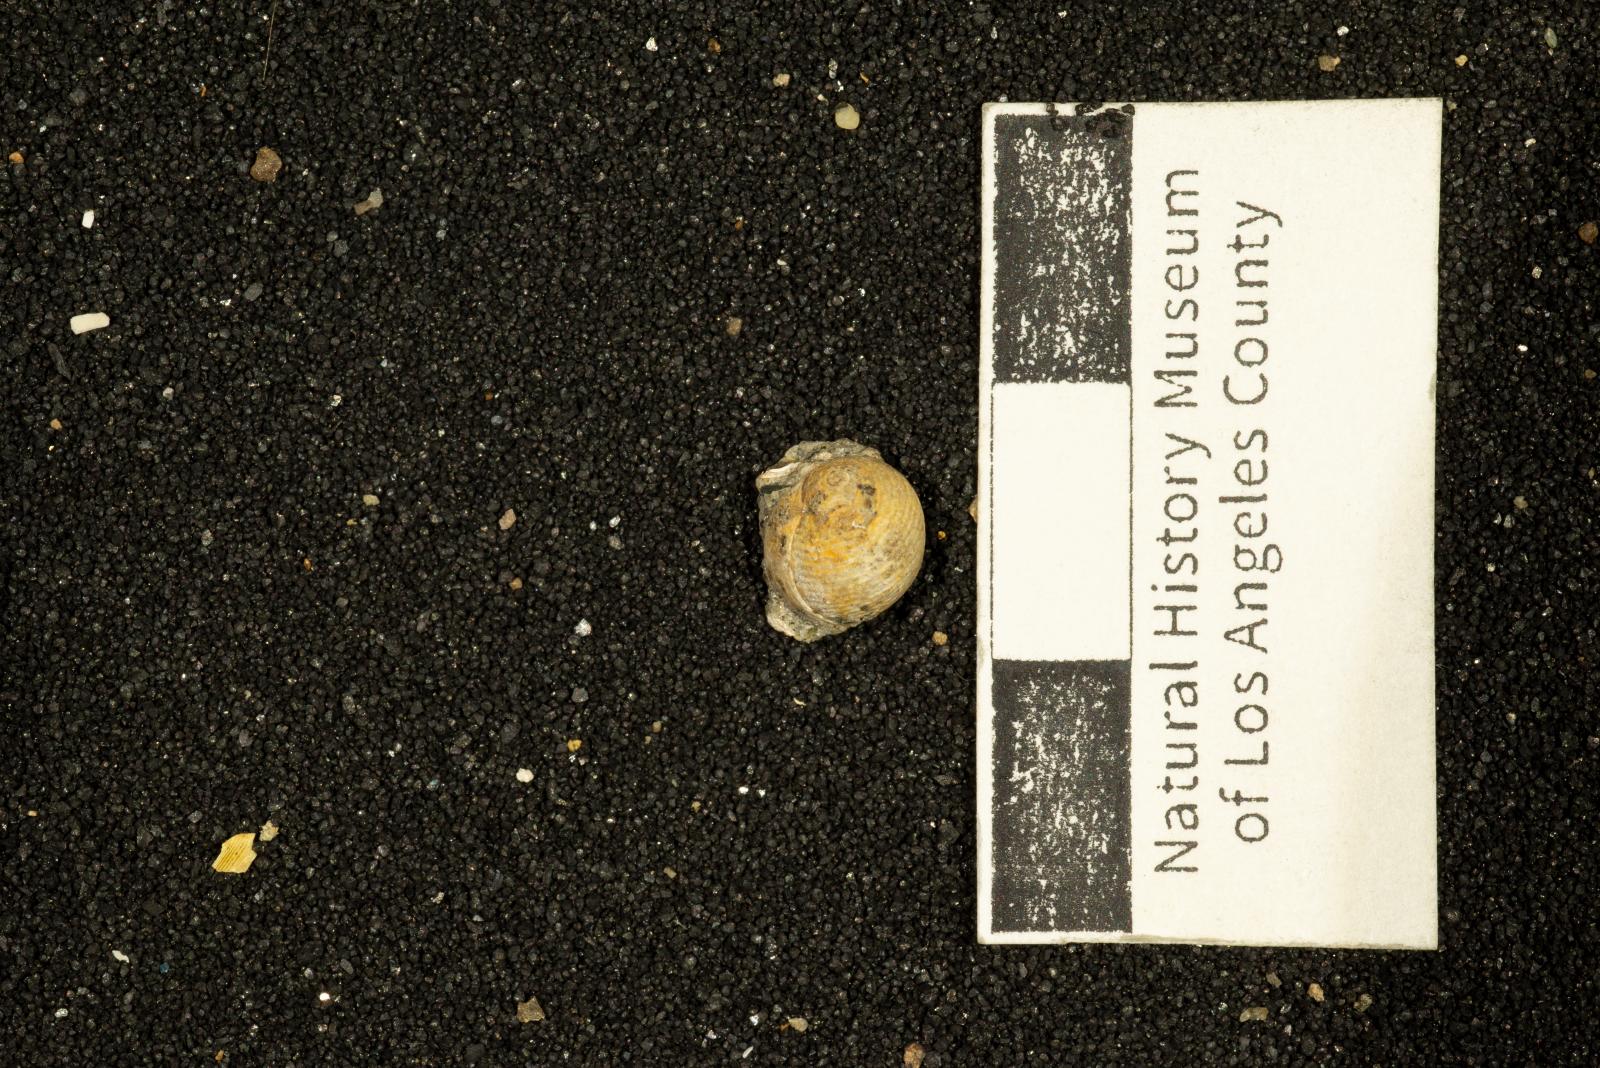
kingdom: Animalia
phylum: Mollusca
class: Gastropoda
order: Cephalaspidea
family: Ringiculidae
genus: Ringiculopsis
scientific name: Ringiculopsis Ringicula hesperiae
